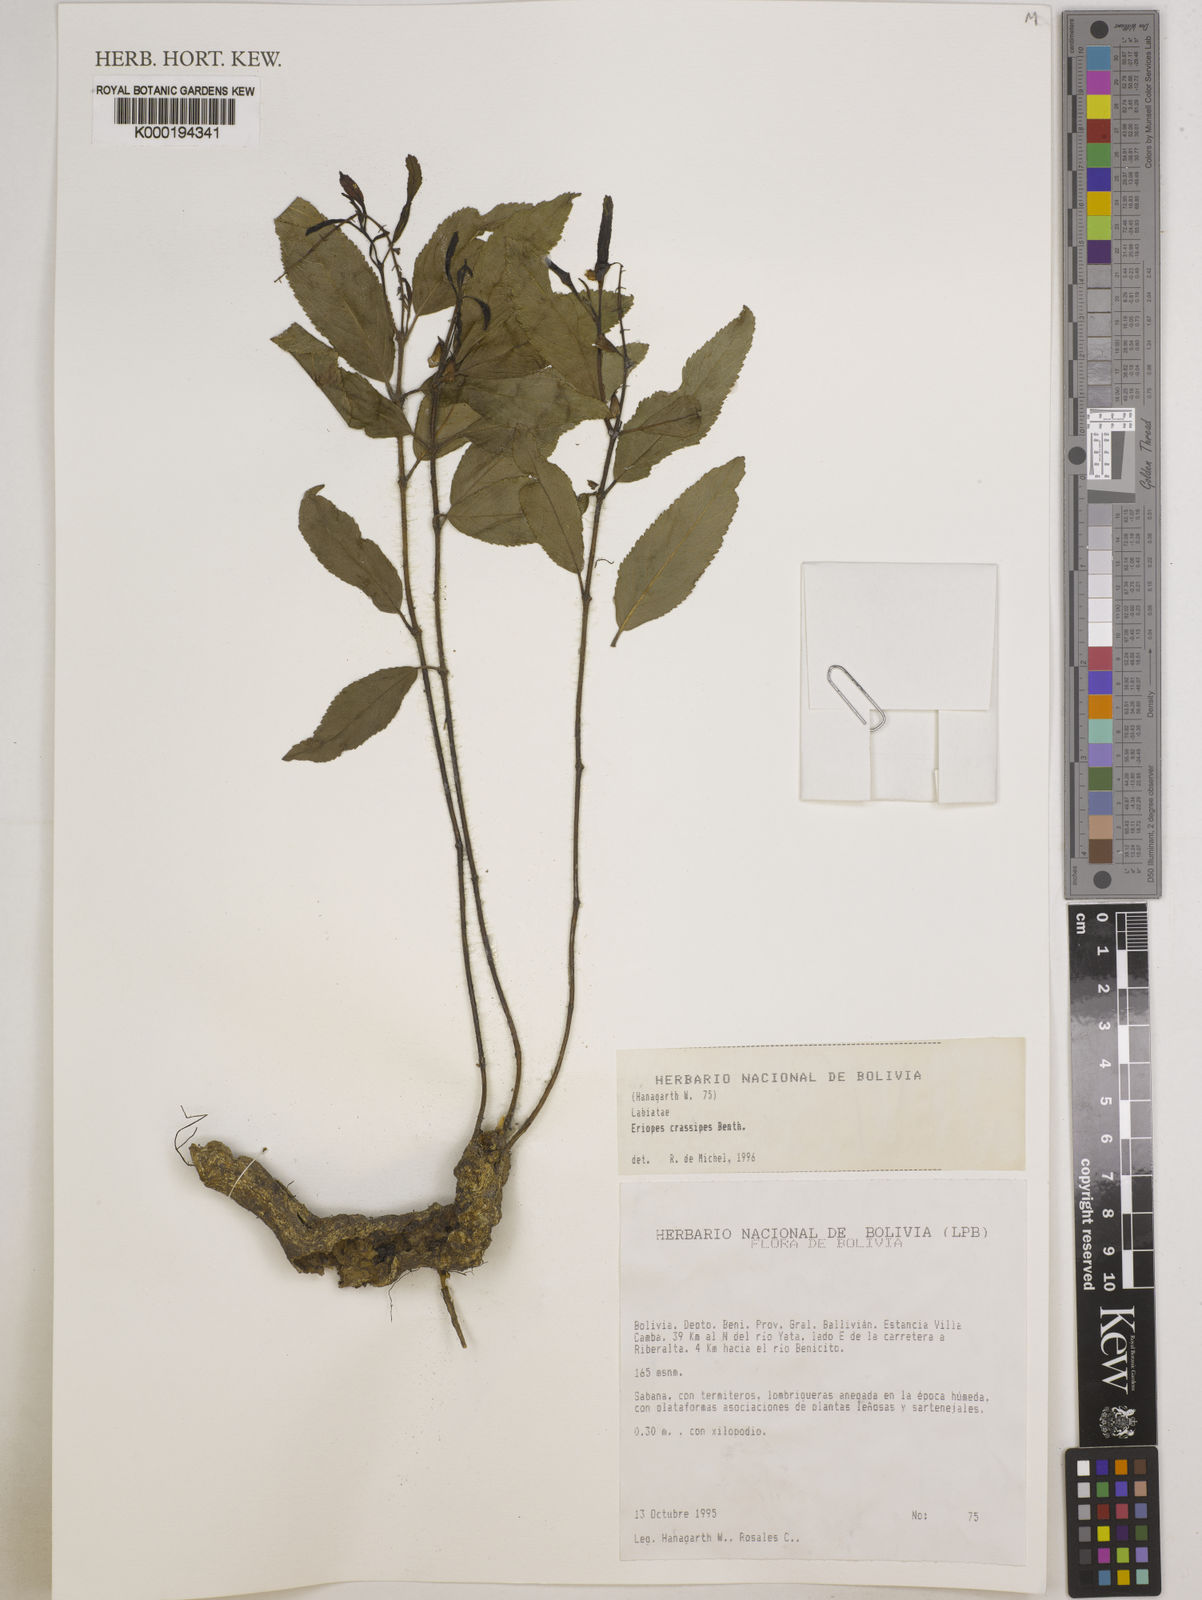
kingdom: Plantae
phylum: Tracheophyta
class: Magnoliopsida
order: Lamiales
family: Lamiaceae
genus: Eriope
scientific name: Eriope crassipes
